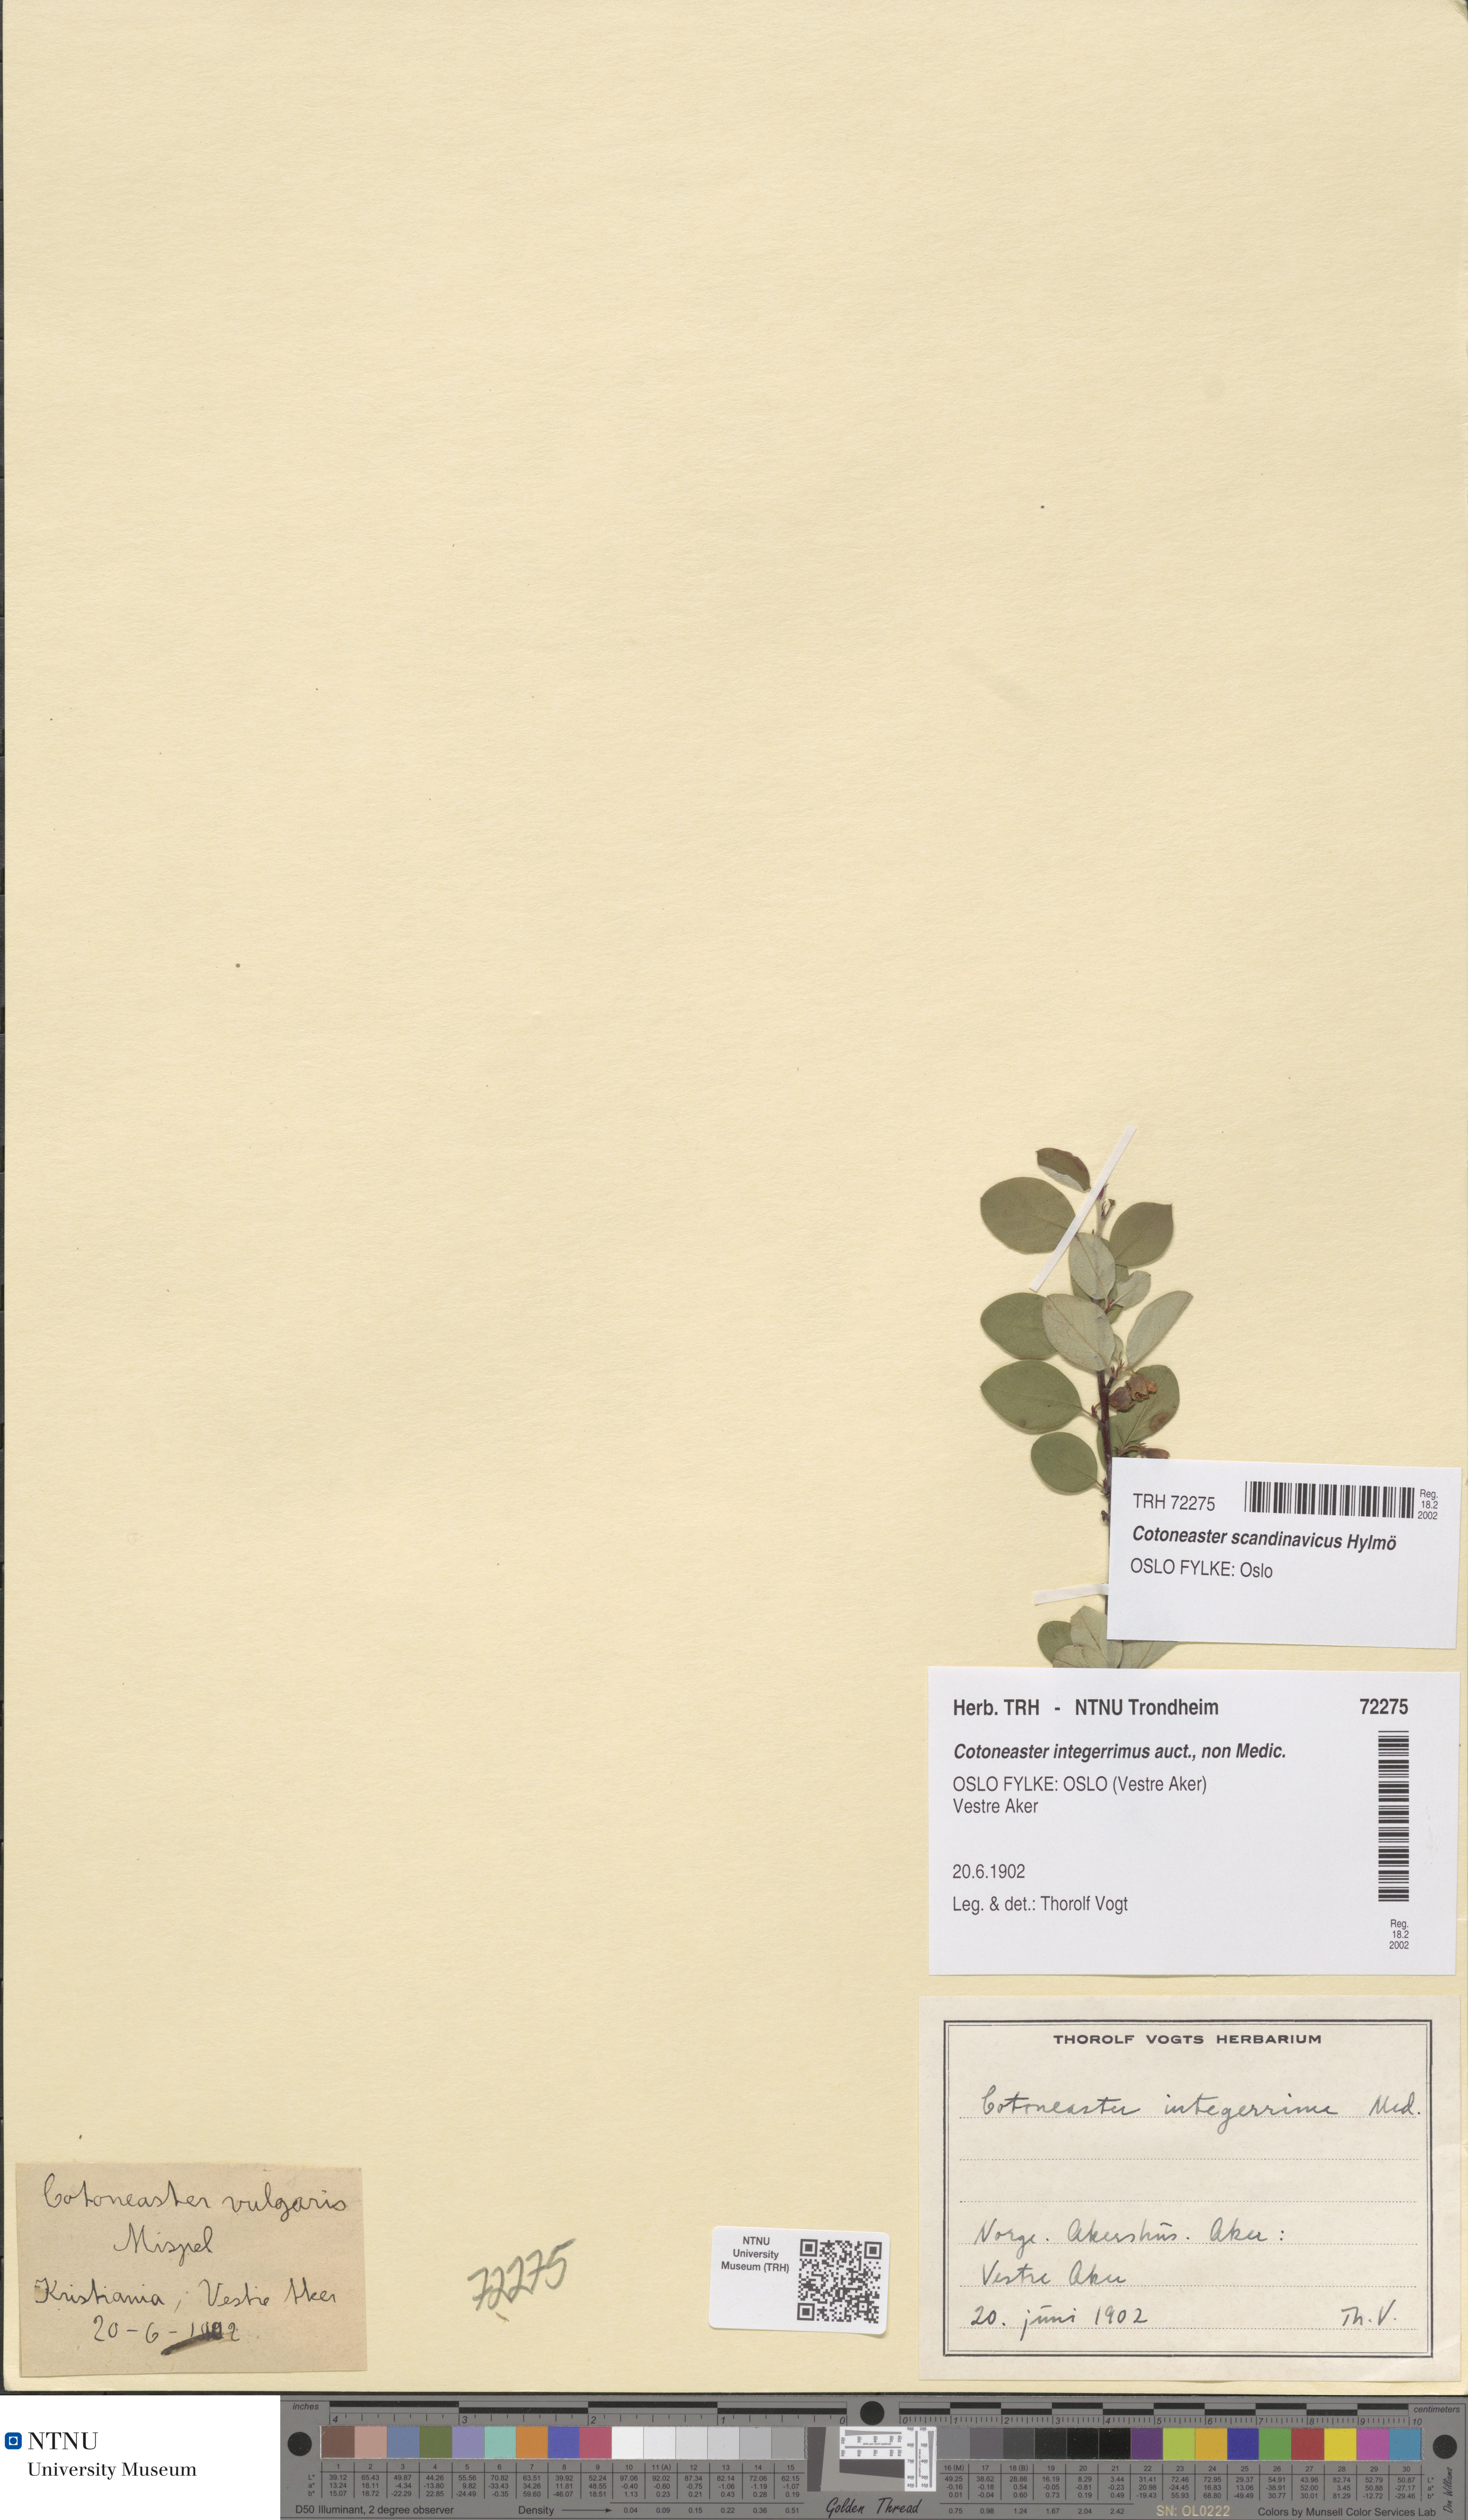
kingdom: Plantae
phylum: Tracheophyta
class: Magnoliopsida
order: Rosales
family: Rosaceae
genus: Cotoneaster
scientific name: Cotoneaster integerrimus
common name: Wild cotoneaster
